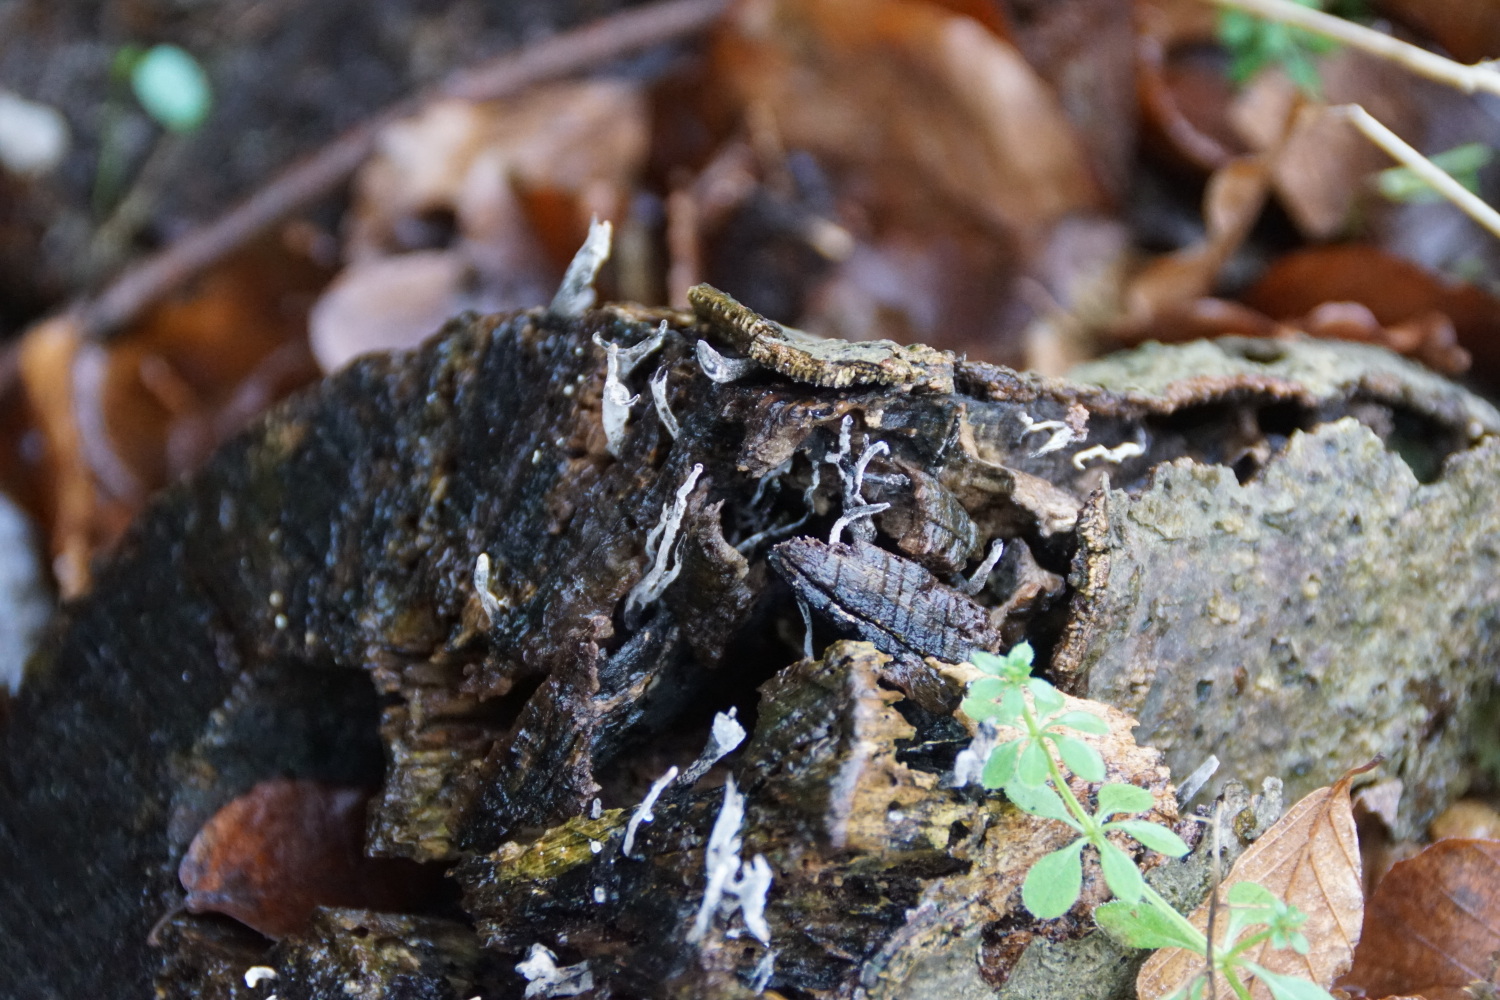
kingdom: Fungi
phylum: Ascomycota
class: Sordariomycetes
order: Xylariales
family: Xylariaceae
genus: Xylaria
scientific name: Xylaria hypoxylon
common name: grenet stødsvamp
